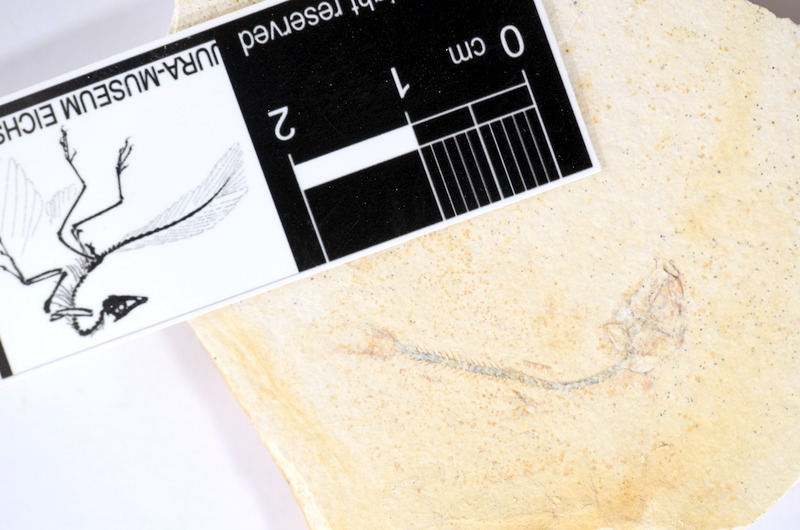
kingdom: Animalia
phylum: Chordata
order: Salmoniformes
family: Orthogonikleithridae
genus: Orthogonikleithrus
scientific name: Orthogonikleithrus hoelli
